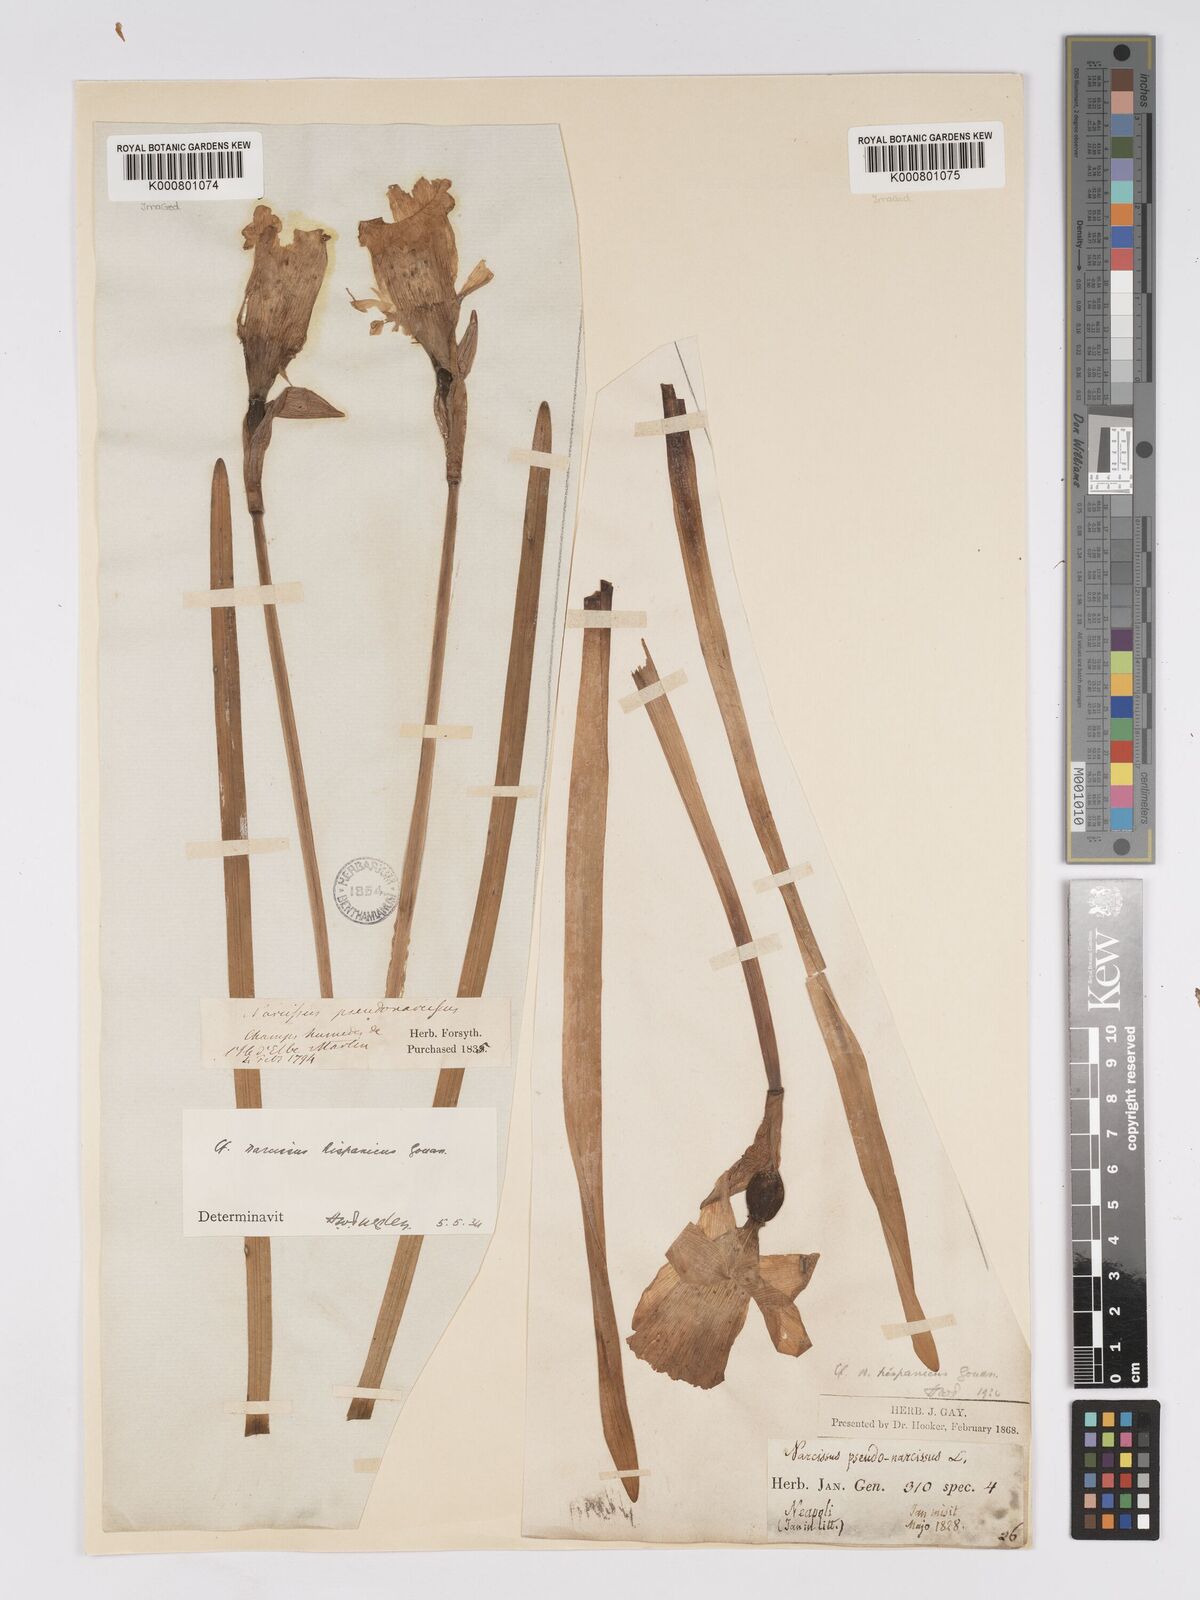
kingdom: Plantae
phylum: Tracheophyta
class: Liliopsida
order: Asparagales
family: Amaryllidaceae
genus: Narcissus
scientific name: Narcissus hispanicus
